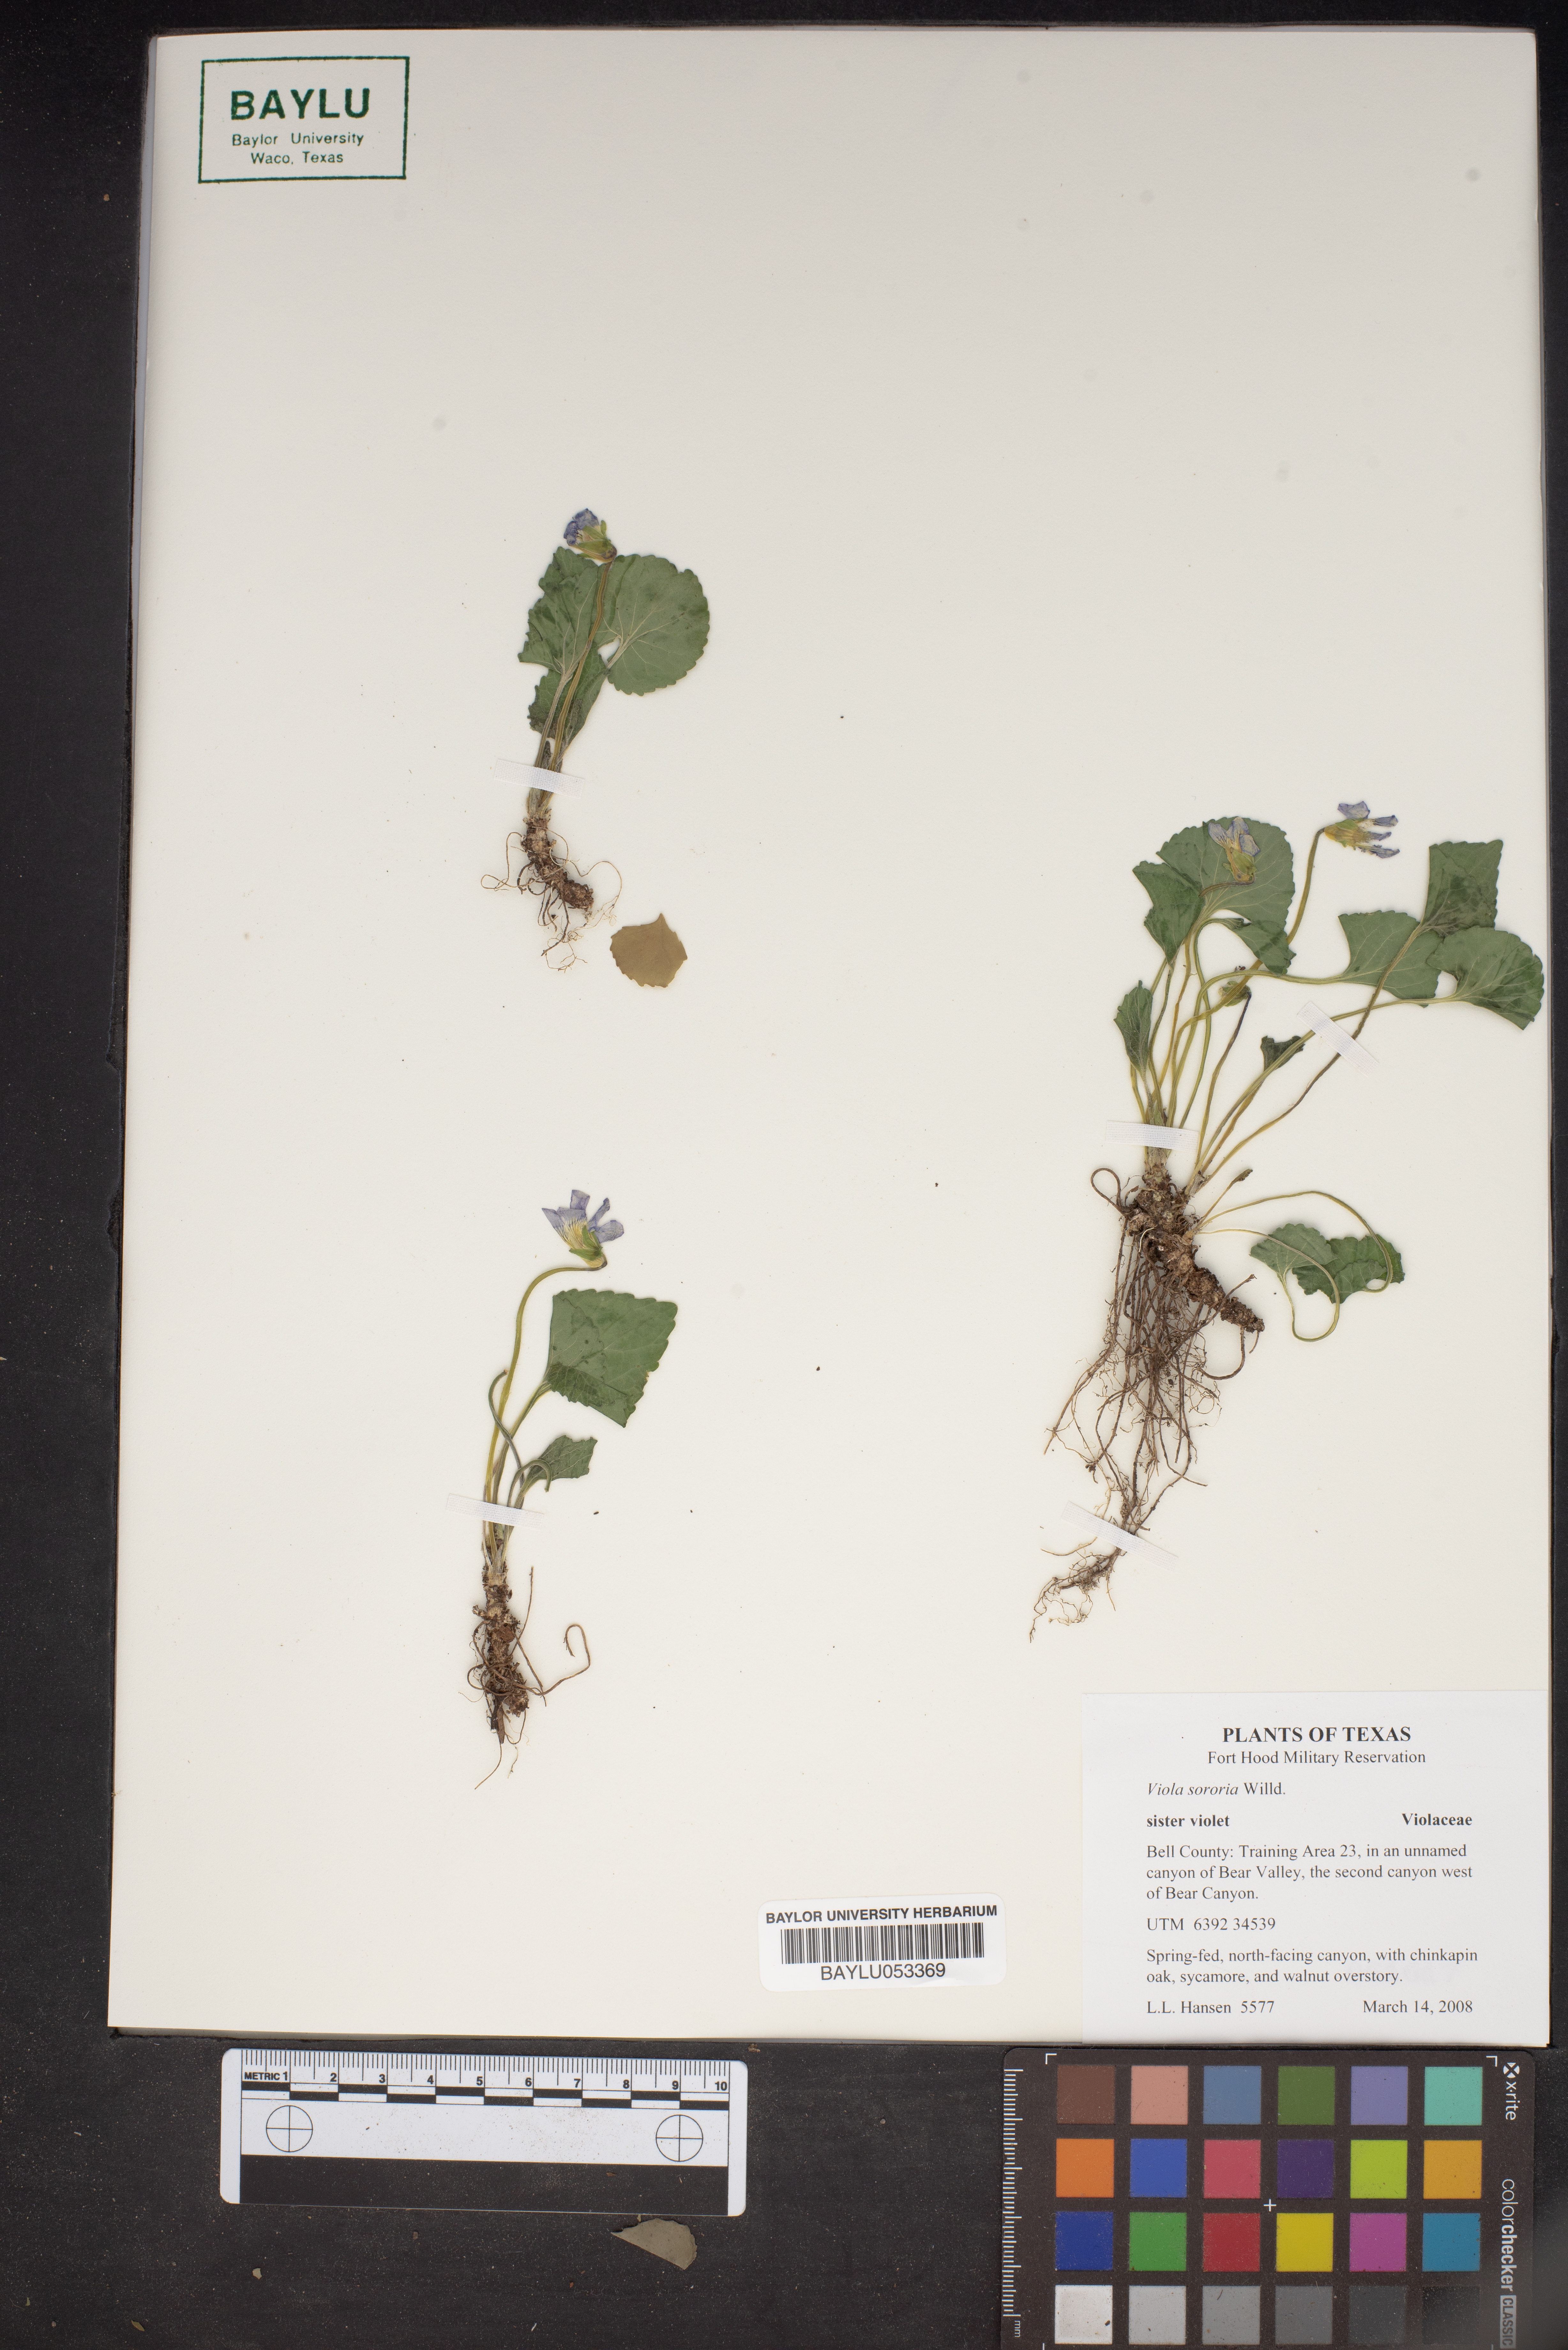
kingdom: Plantae
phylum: Tracheophyta
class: Magnoliopsida
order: Malpighiales
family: Violaceae
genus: Viola
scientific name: Viola sororia
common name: Dooryard violet
